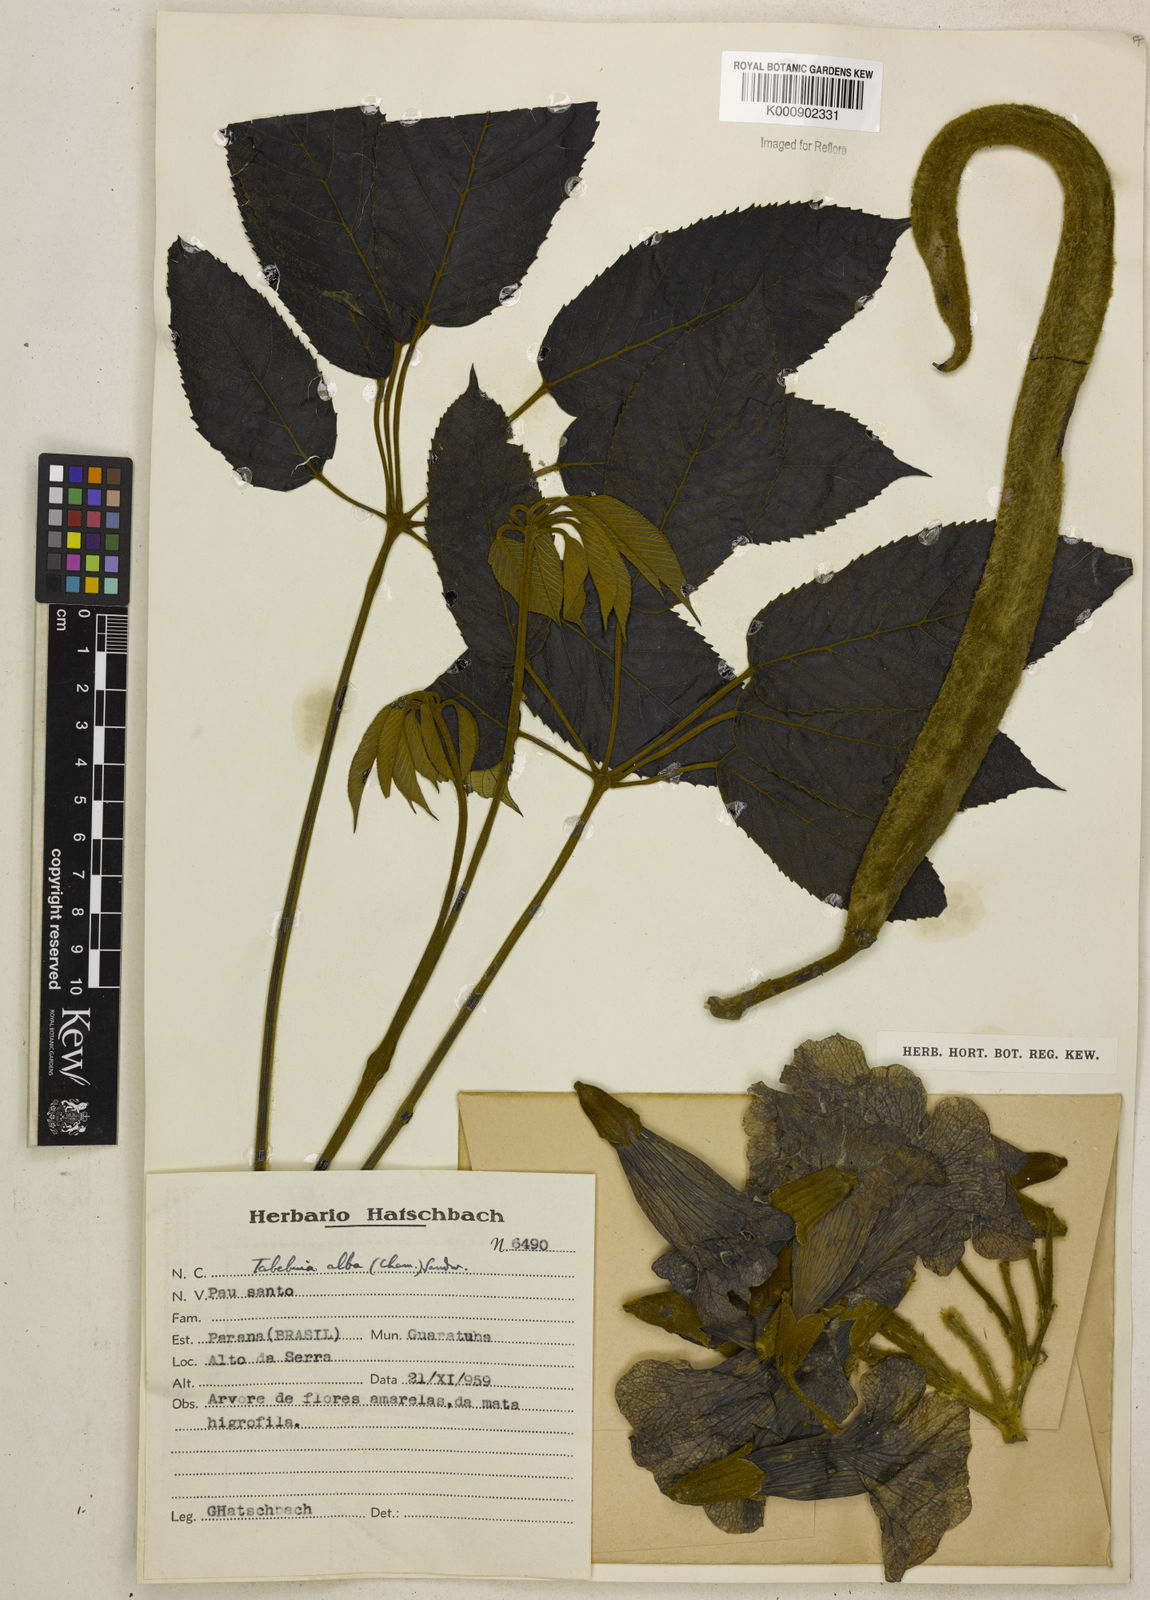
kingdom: Plantae
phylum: Tracheophyta
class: Magnoliopsida
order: Lamiales
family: Bignoniaceae
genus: Handroanthus
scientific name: Handroanthus albus
